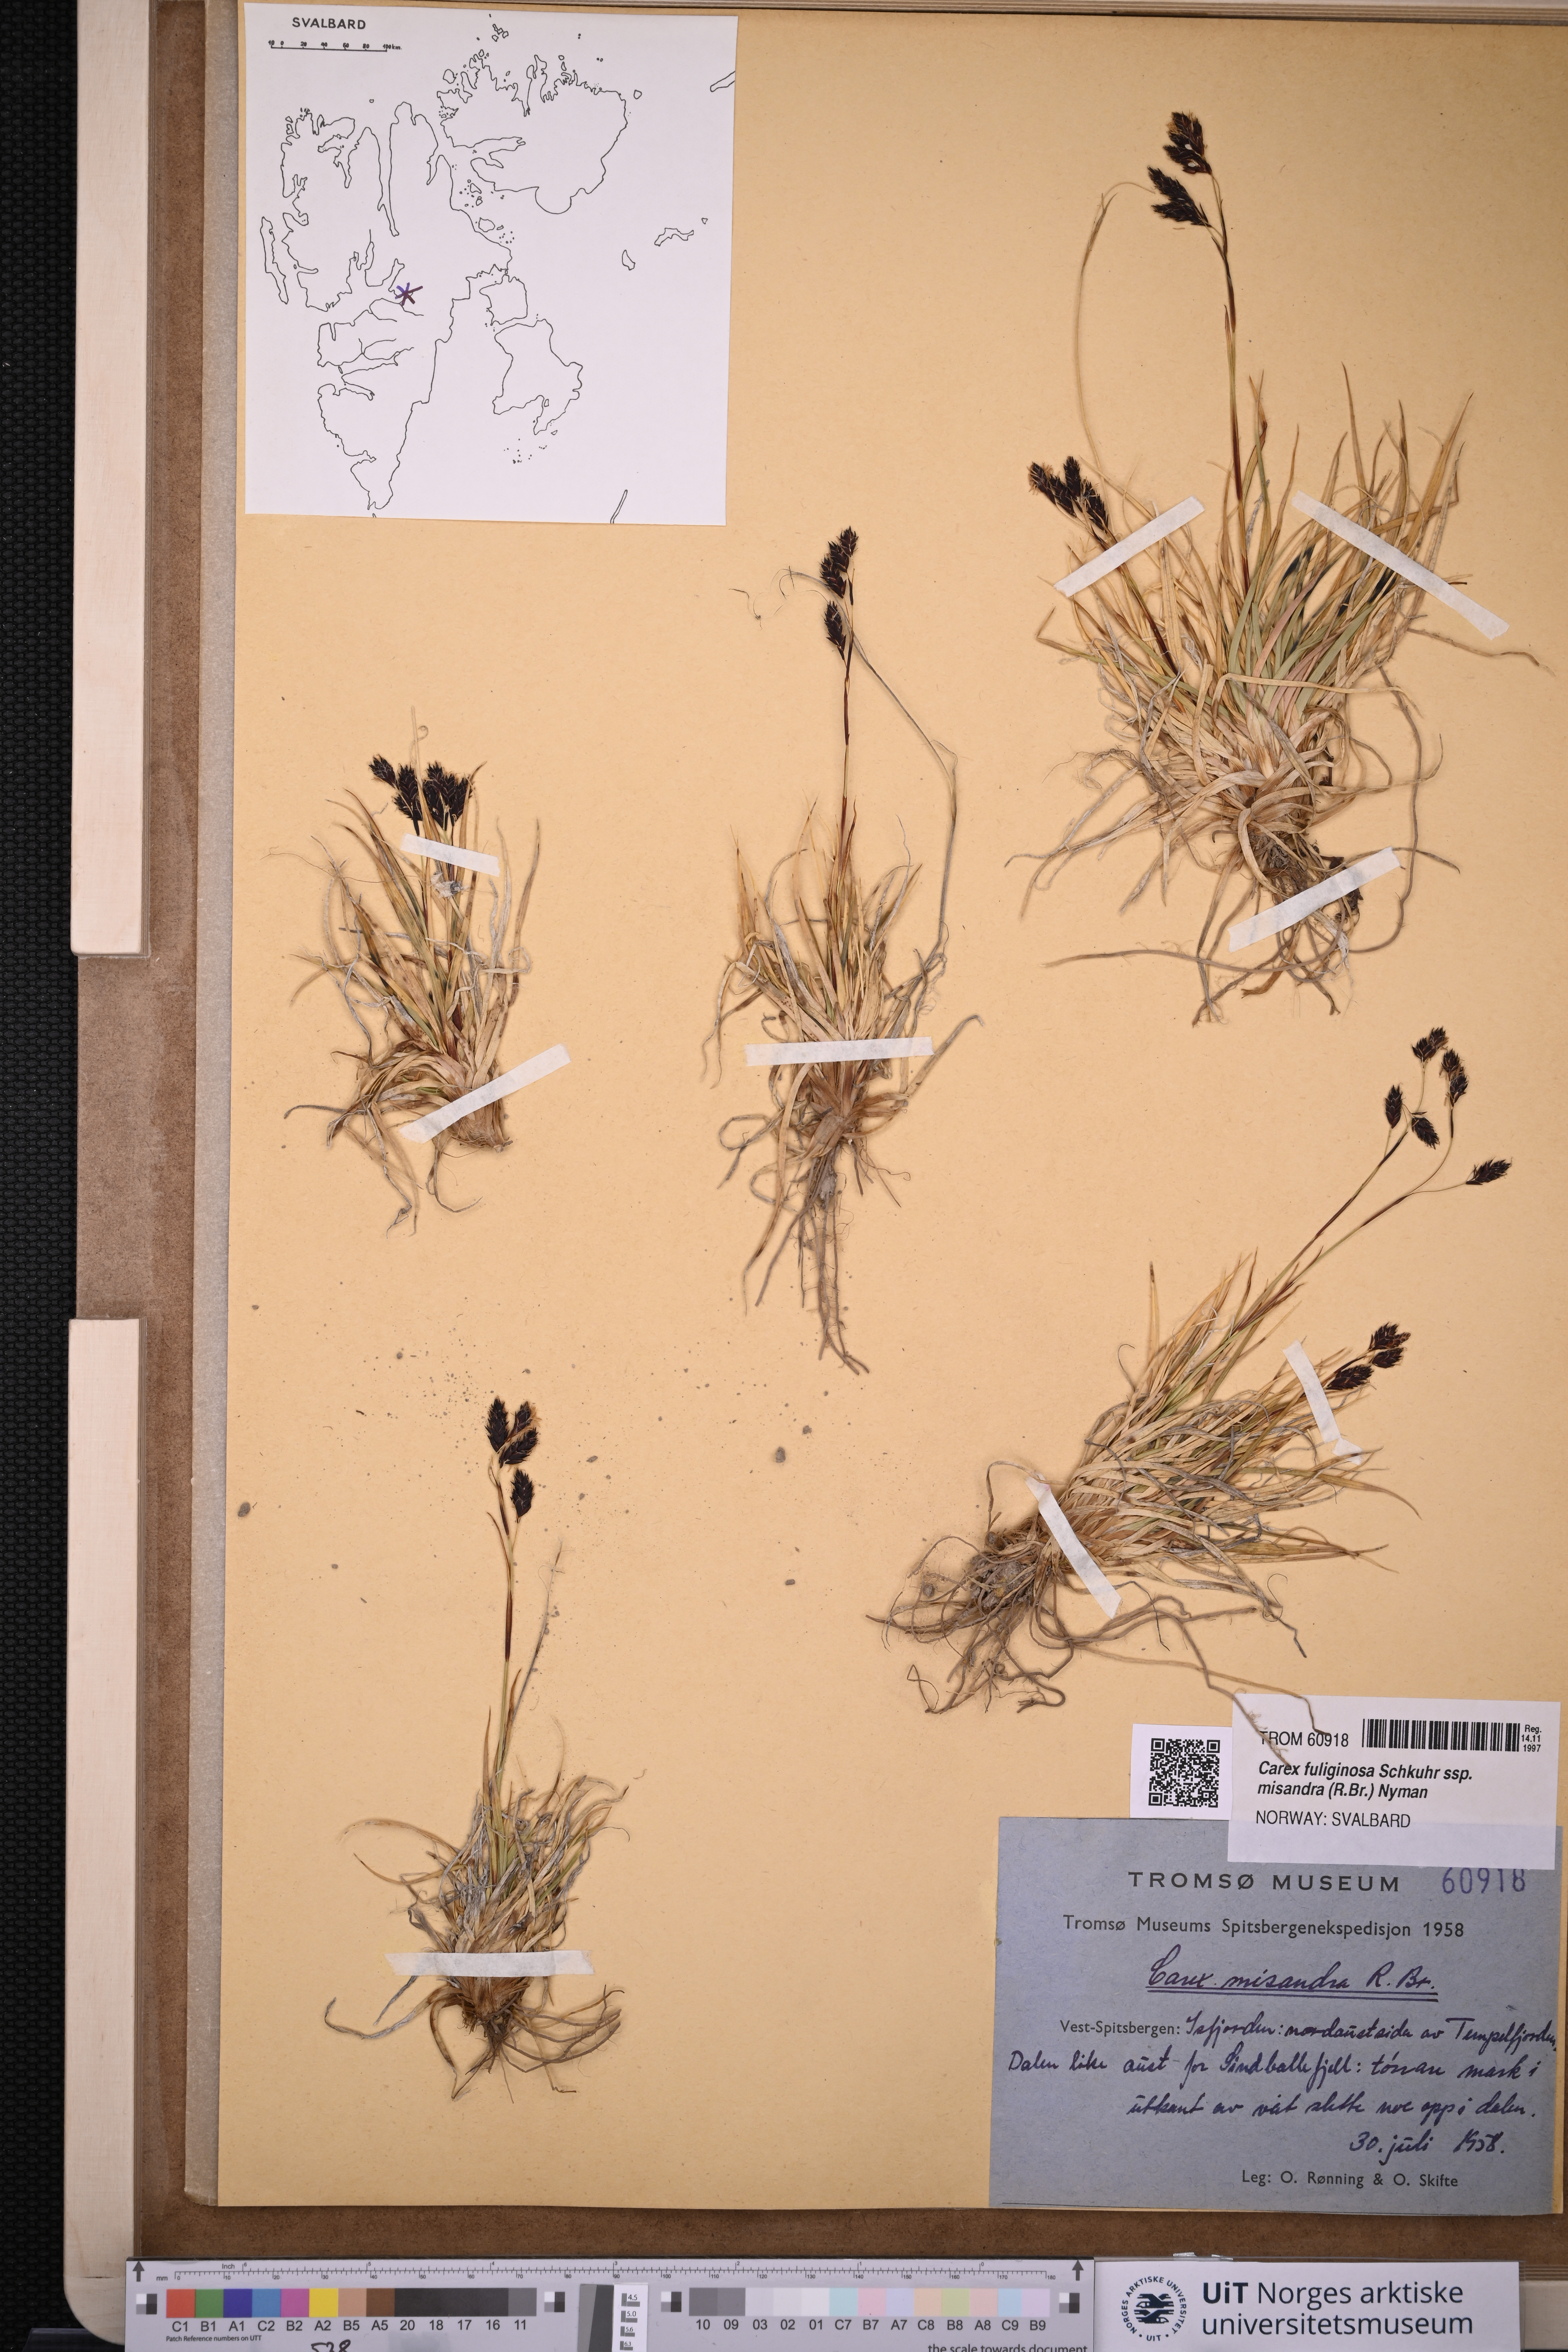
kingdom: Plantae
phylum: Tracheophyta
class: Liliopsida
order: Poales
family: Cyperaceae
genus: Carex
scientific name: Carex fuliginosa
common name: Few-flowered sedge
